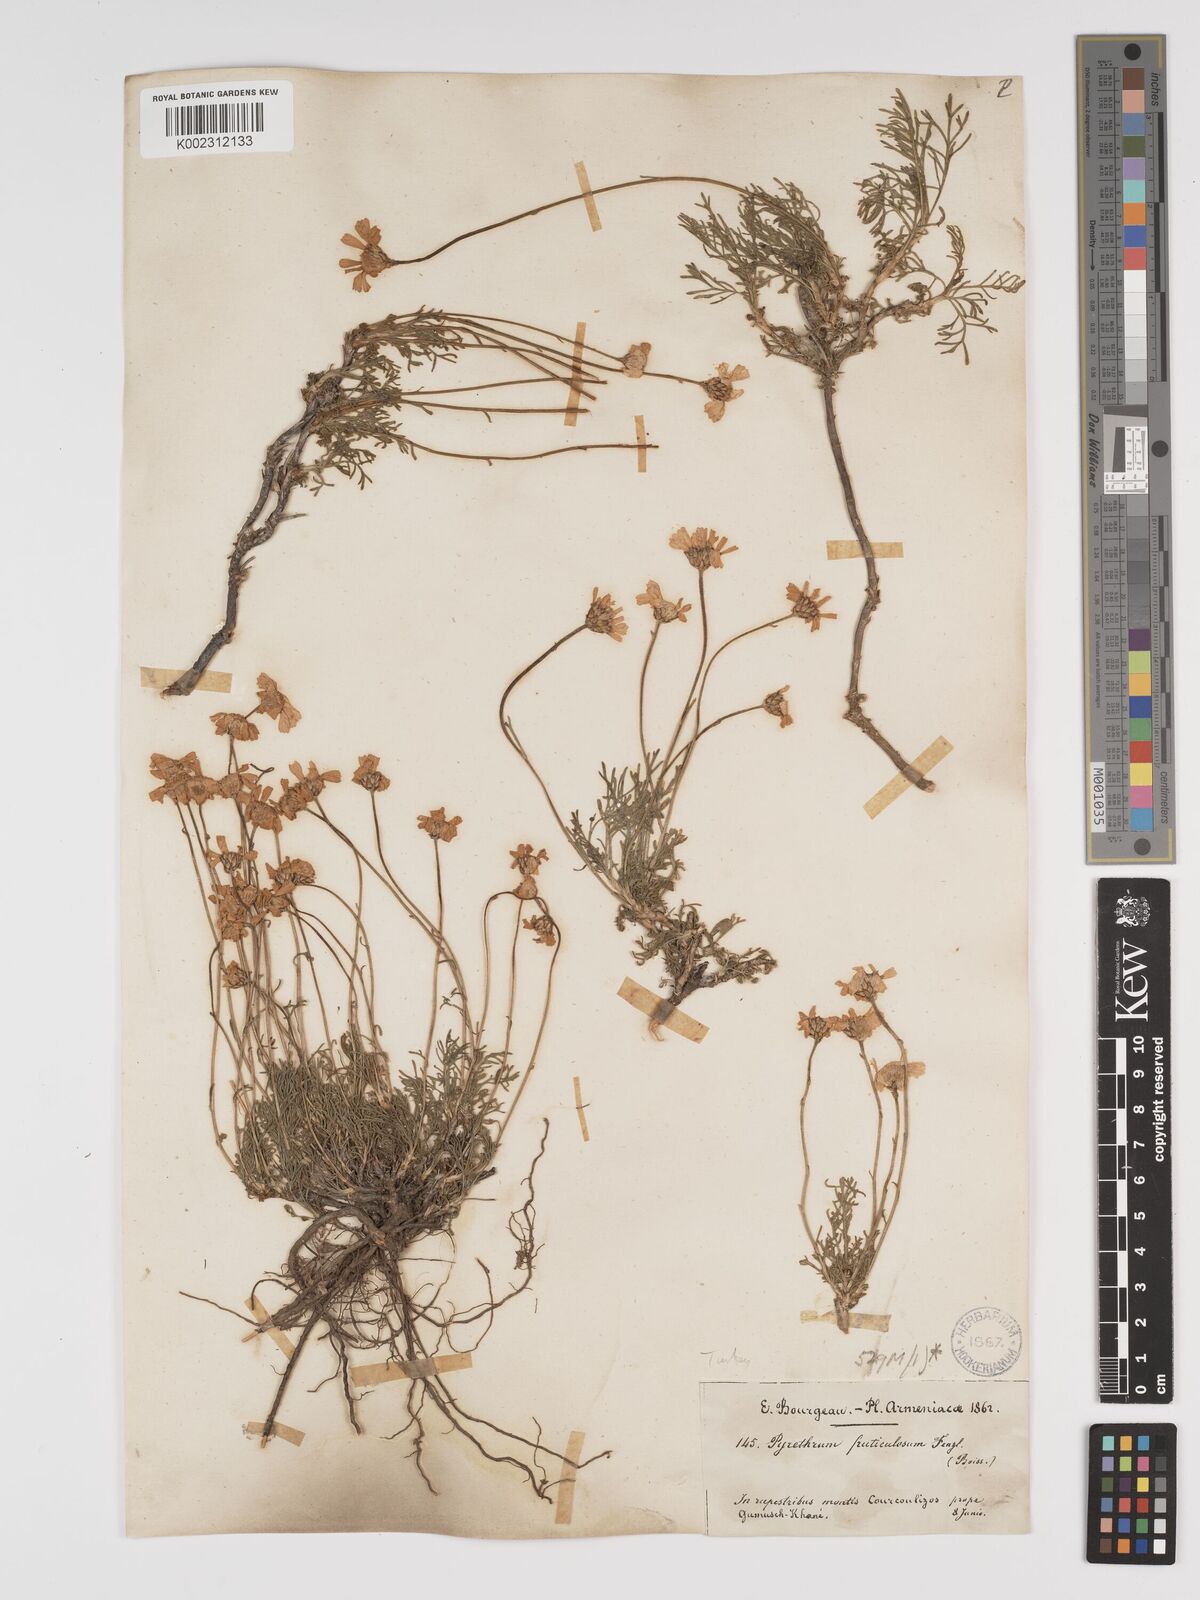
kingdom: Plantae
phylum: Tracheophyta
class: Magnoliopsida
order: Asterales
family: Asteraceae
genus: Ajania
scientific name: Ajania fruticulosa
